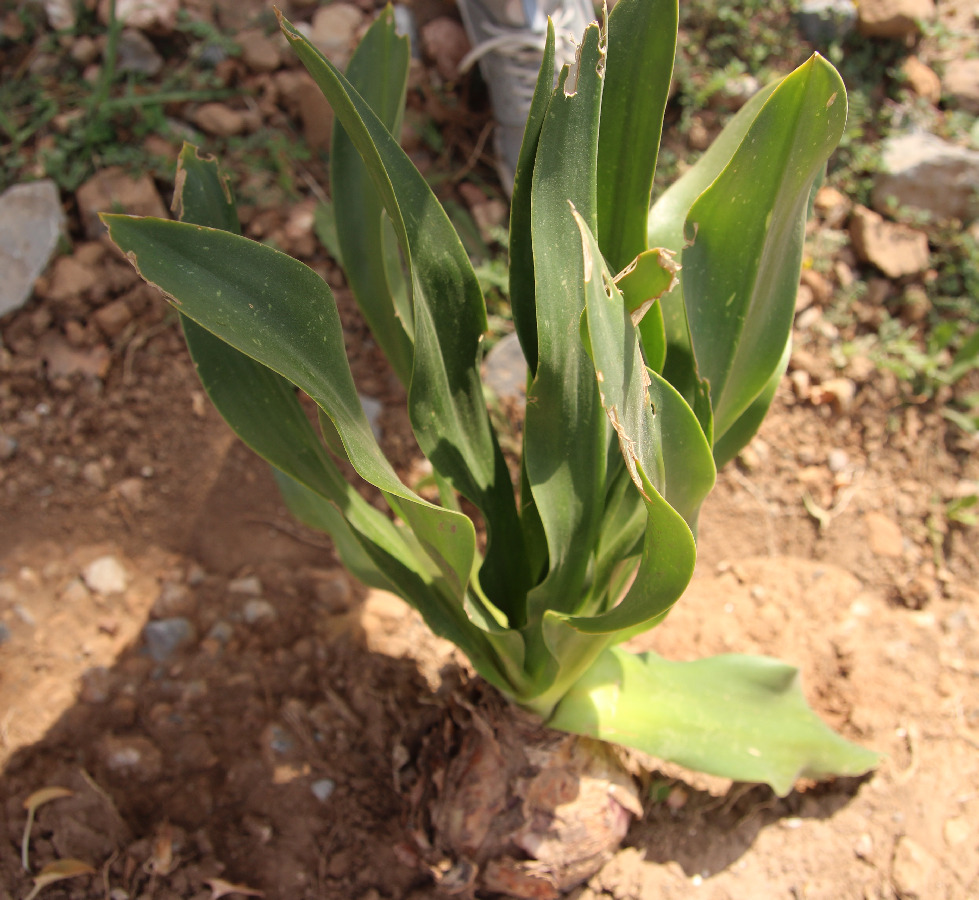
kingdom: Plantae
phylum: Tracheophyta
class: Liliopsida
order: Asparagales
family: Asparagaceae
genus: Drimia
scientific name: Drimia numidica
